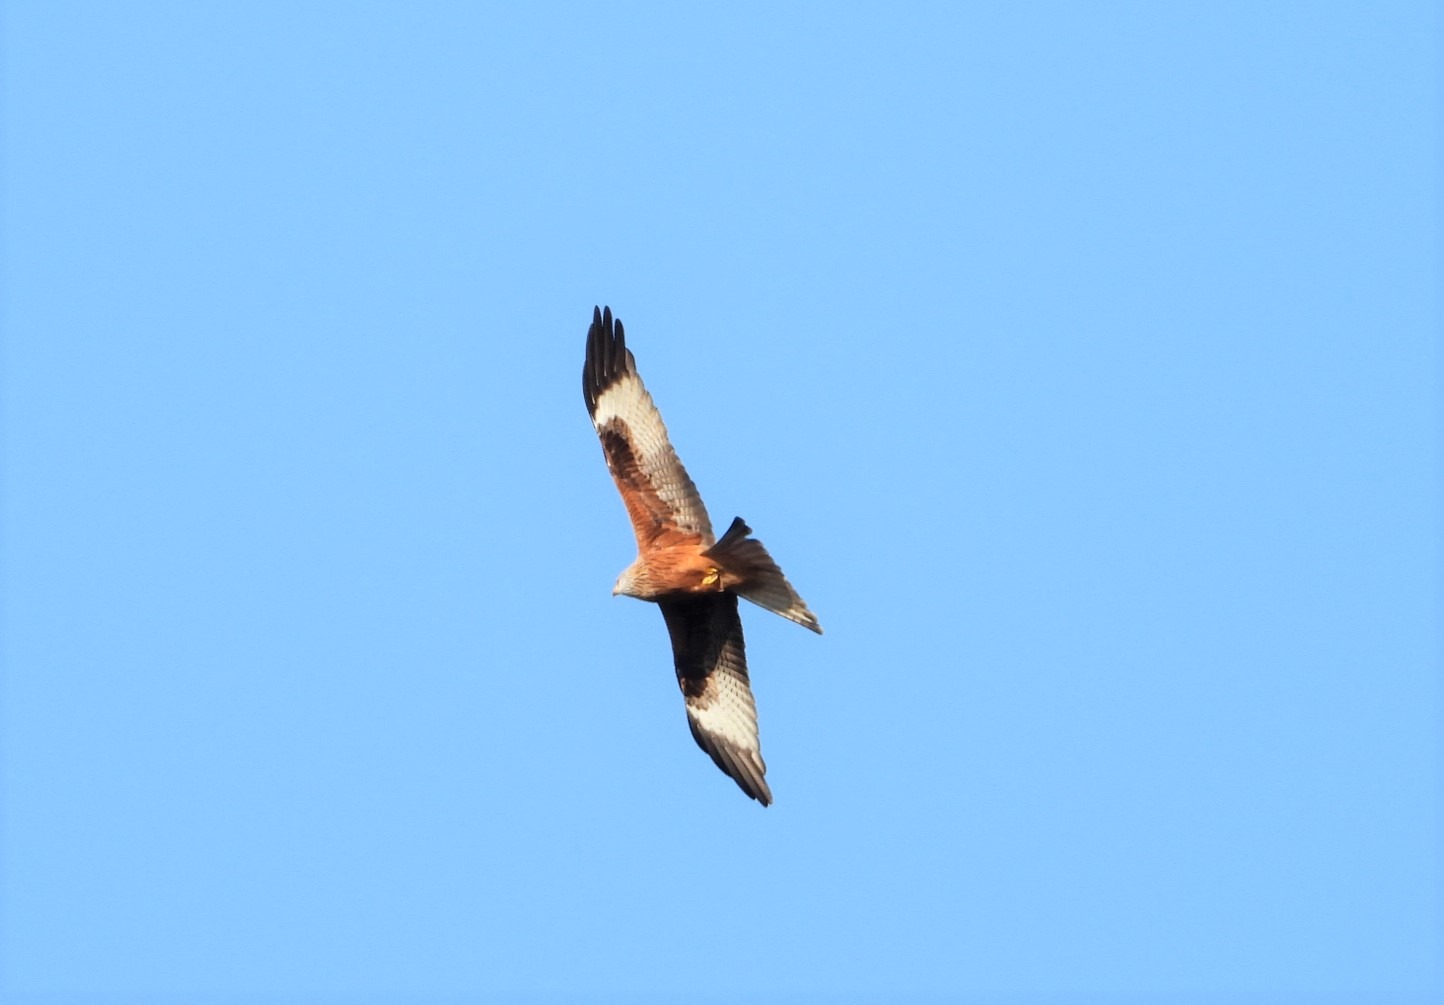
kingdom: Animalia
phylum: Chordata
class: Aves
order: Accipitriformes
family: Accipitridae
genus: Milvus
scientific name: Milvus milvus
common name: Rød glente
